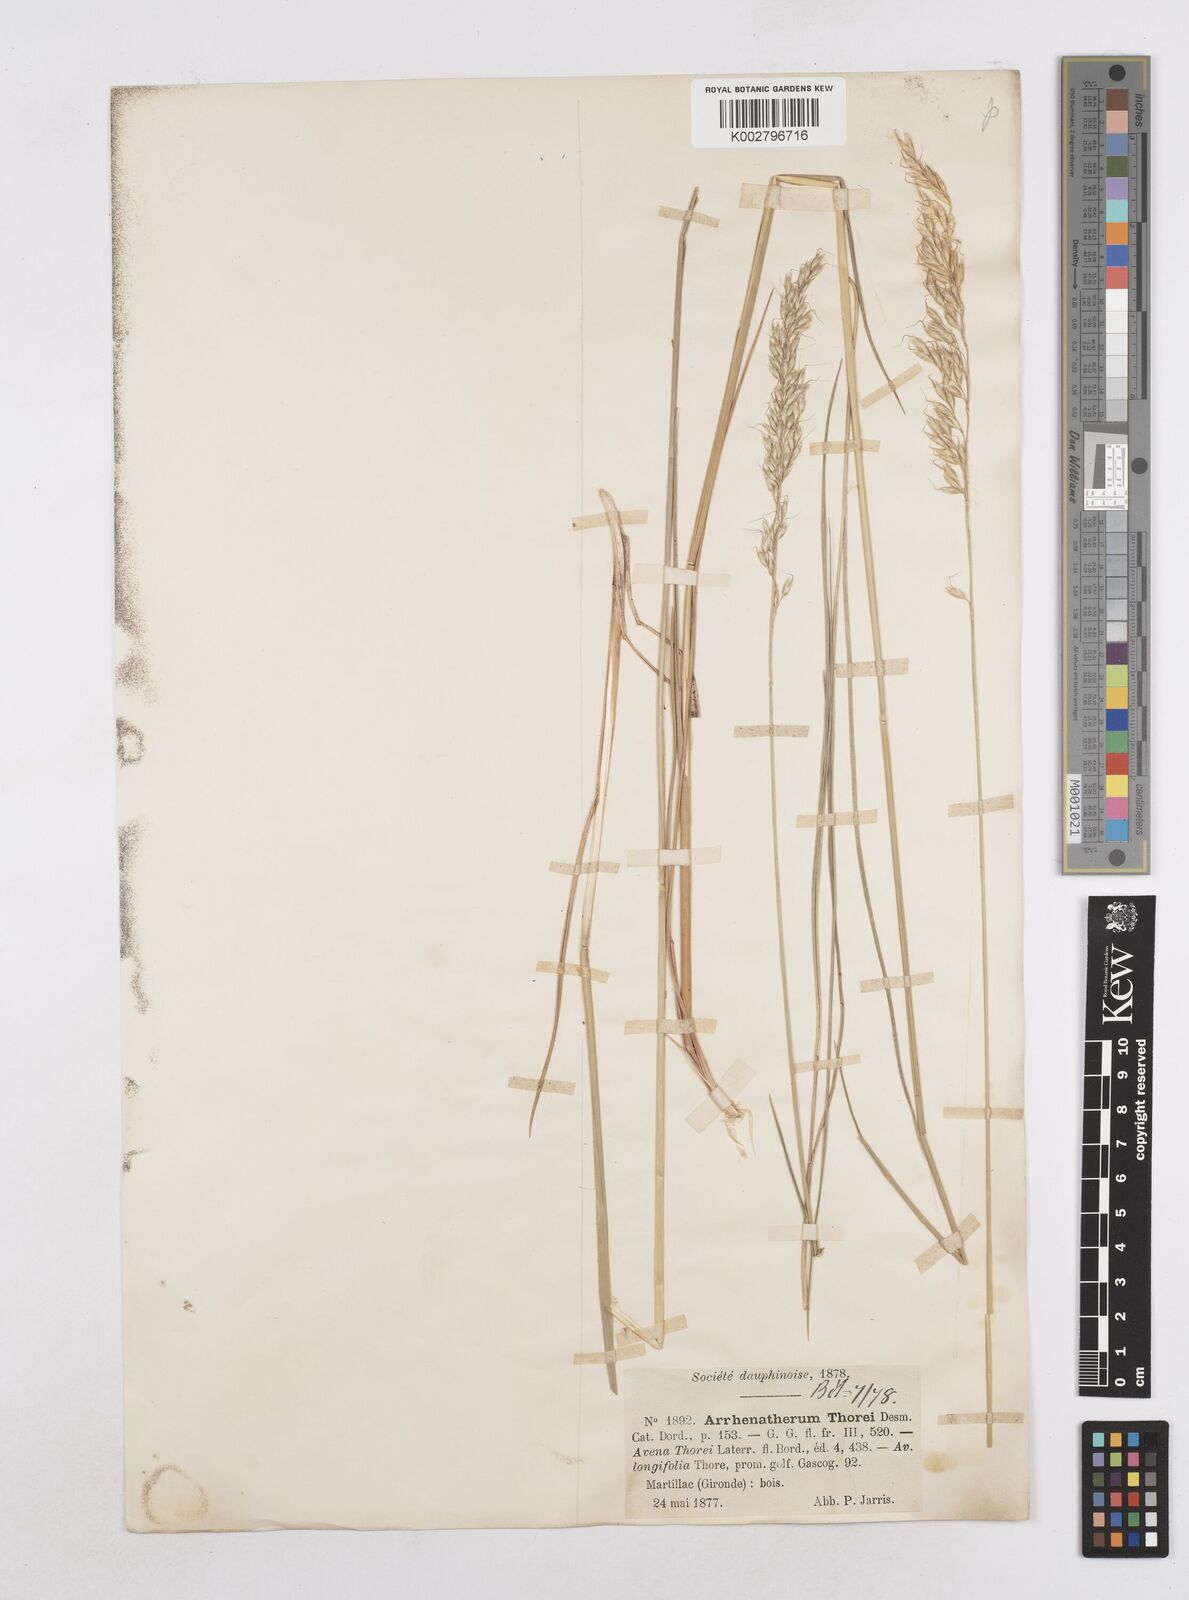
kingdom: Plantae
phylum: Tracheophyta
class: Liliopsida
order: Poales
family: Poaceae
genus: Arrhenatherum
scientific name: Arrhenatherum longifolium
